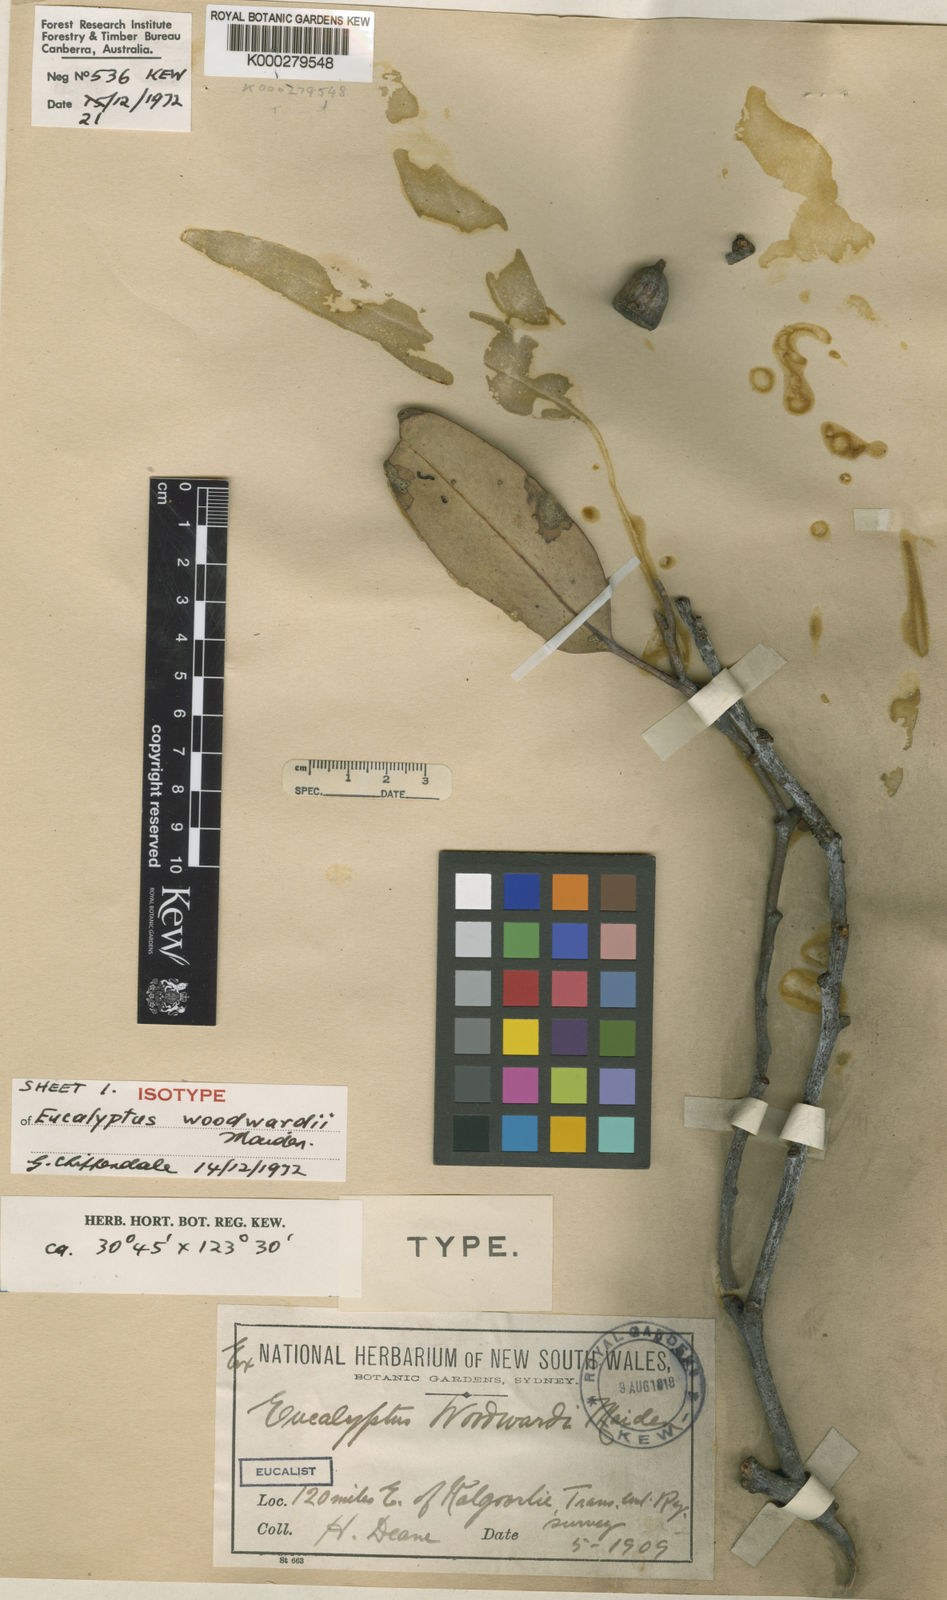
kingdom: Plantae
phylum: Tracheophyta
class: Magnoliopsida
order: Myrtales
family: Myrtaceae
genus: Eucalyptus
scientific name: Eucalyptus woodwardii
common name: Lemon-flowered mallee
